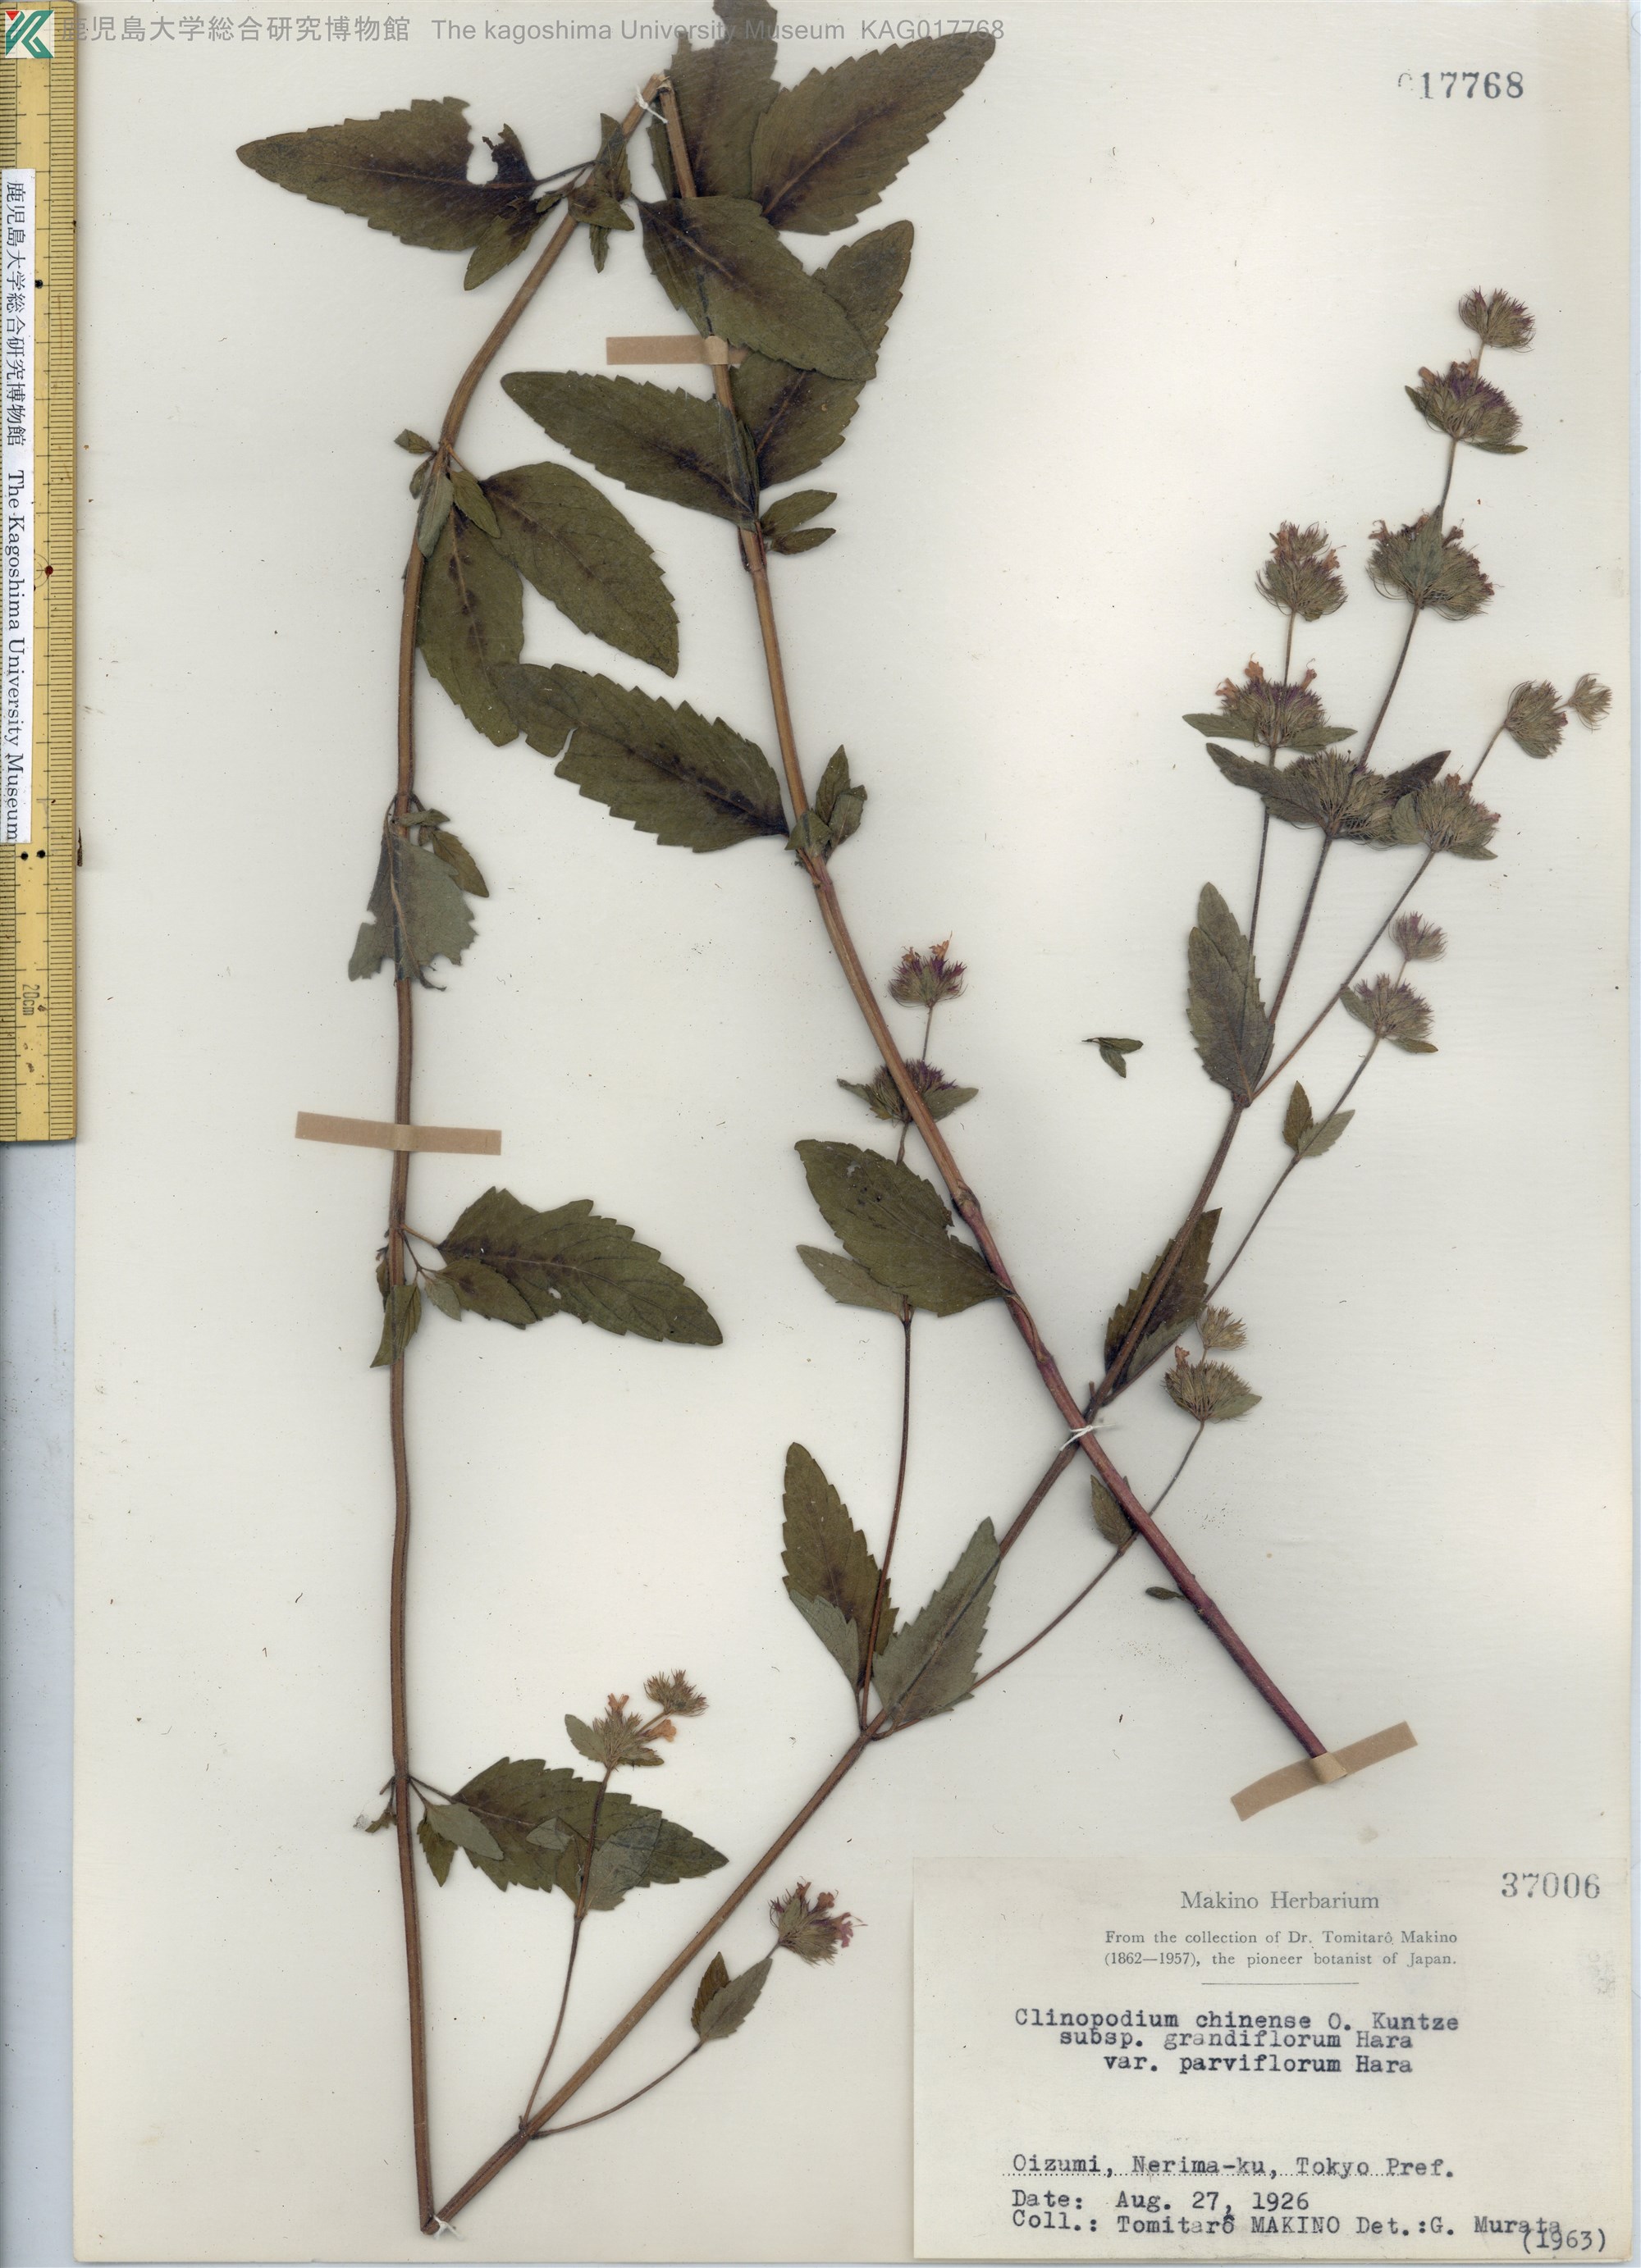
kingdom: Plantae
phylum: Tracheophyta
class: Magnoliopsida
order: Lamiales
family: Lamiaceae
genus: Clinopodium
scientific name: Clinopodium chinense
